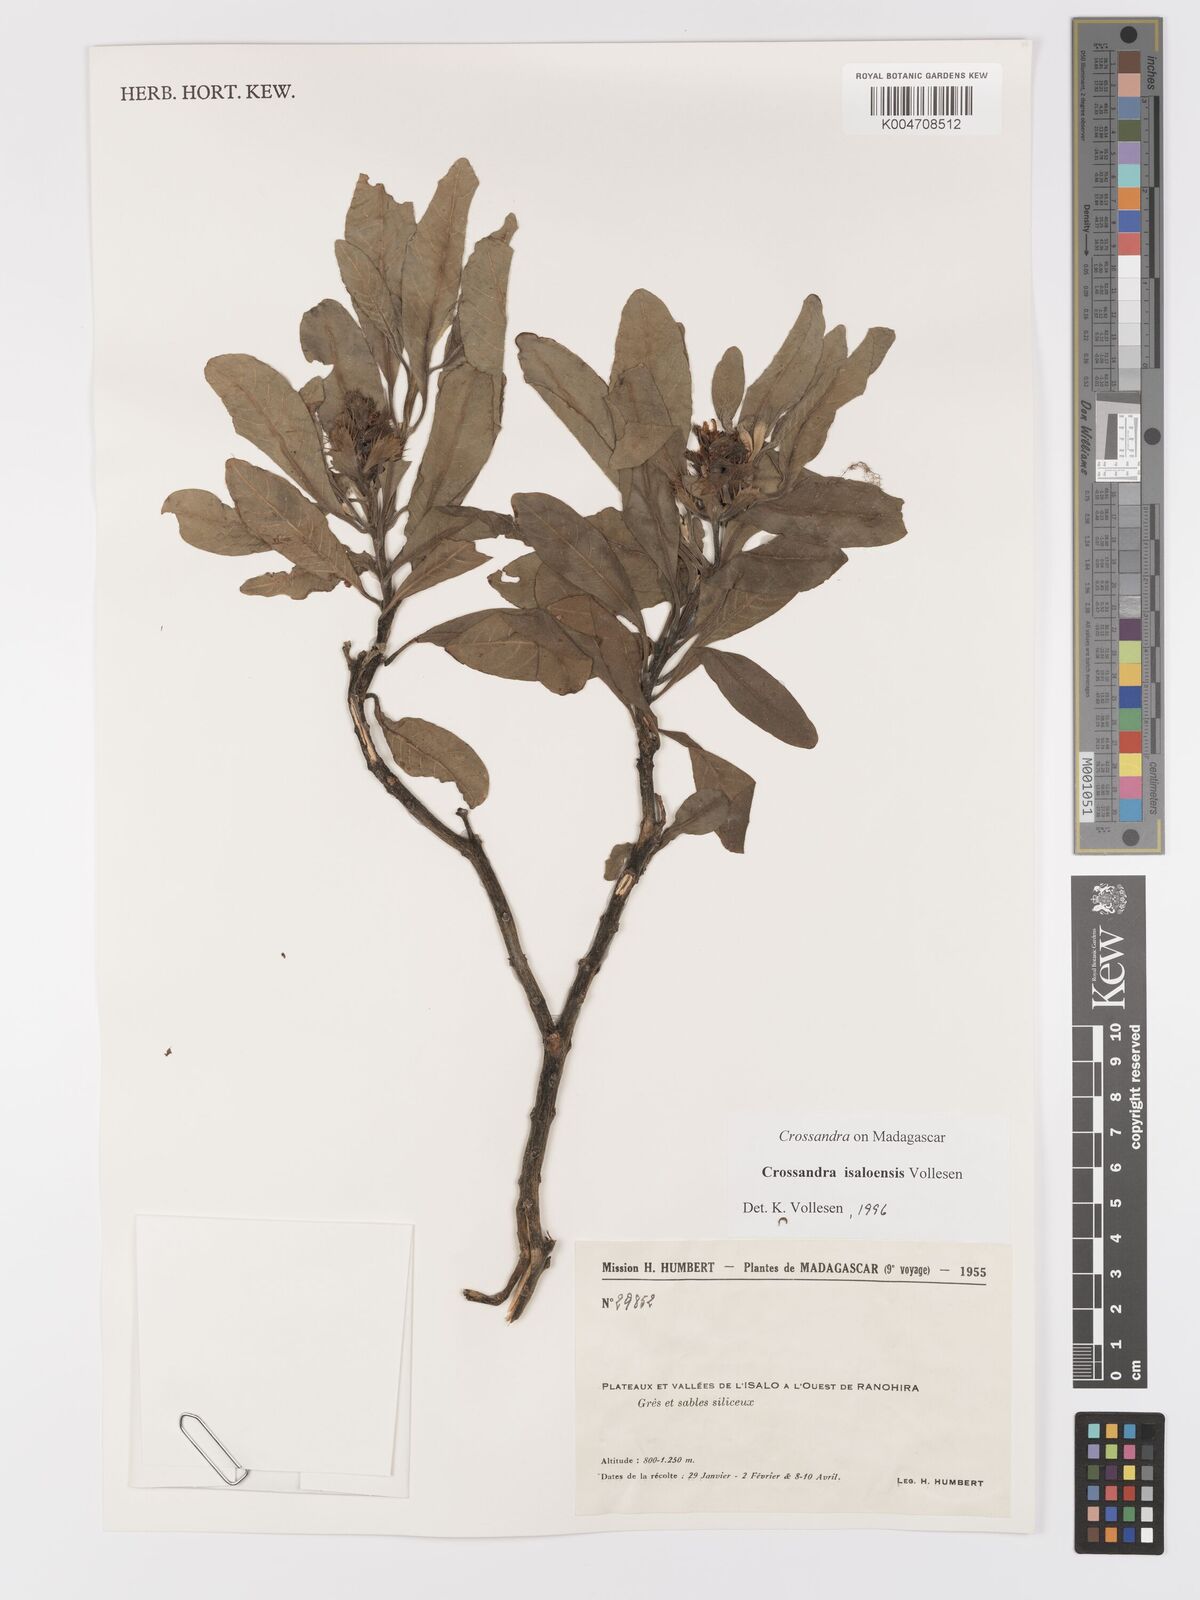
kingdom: Plantae
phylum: Tracheophyta
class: Magnoliopsida
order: Lamiales
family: Acanthaceae
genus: Crossandra
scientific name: Crossandra isaloensis
